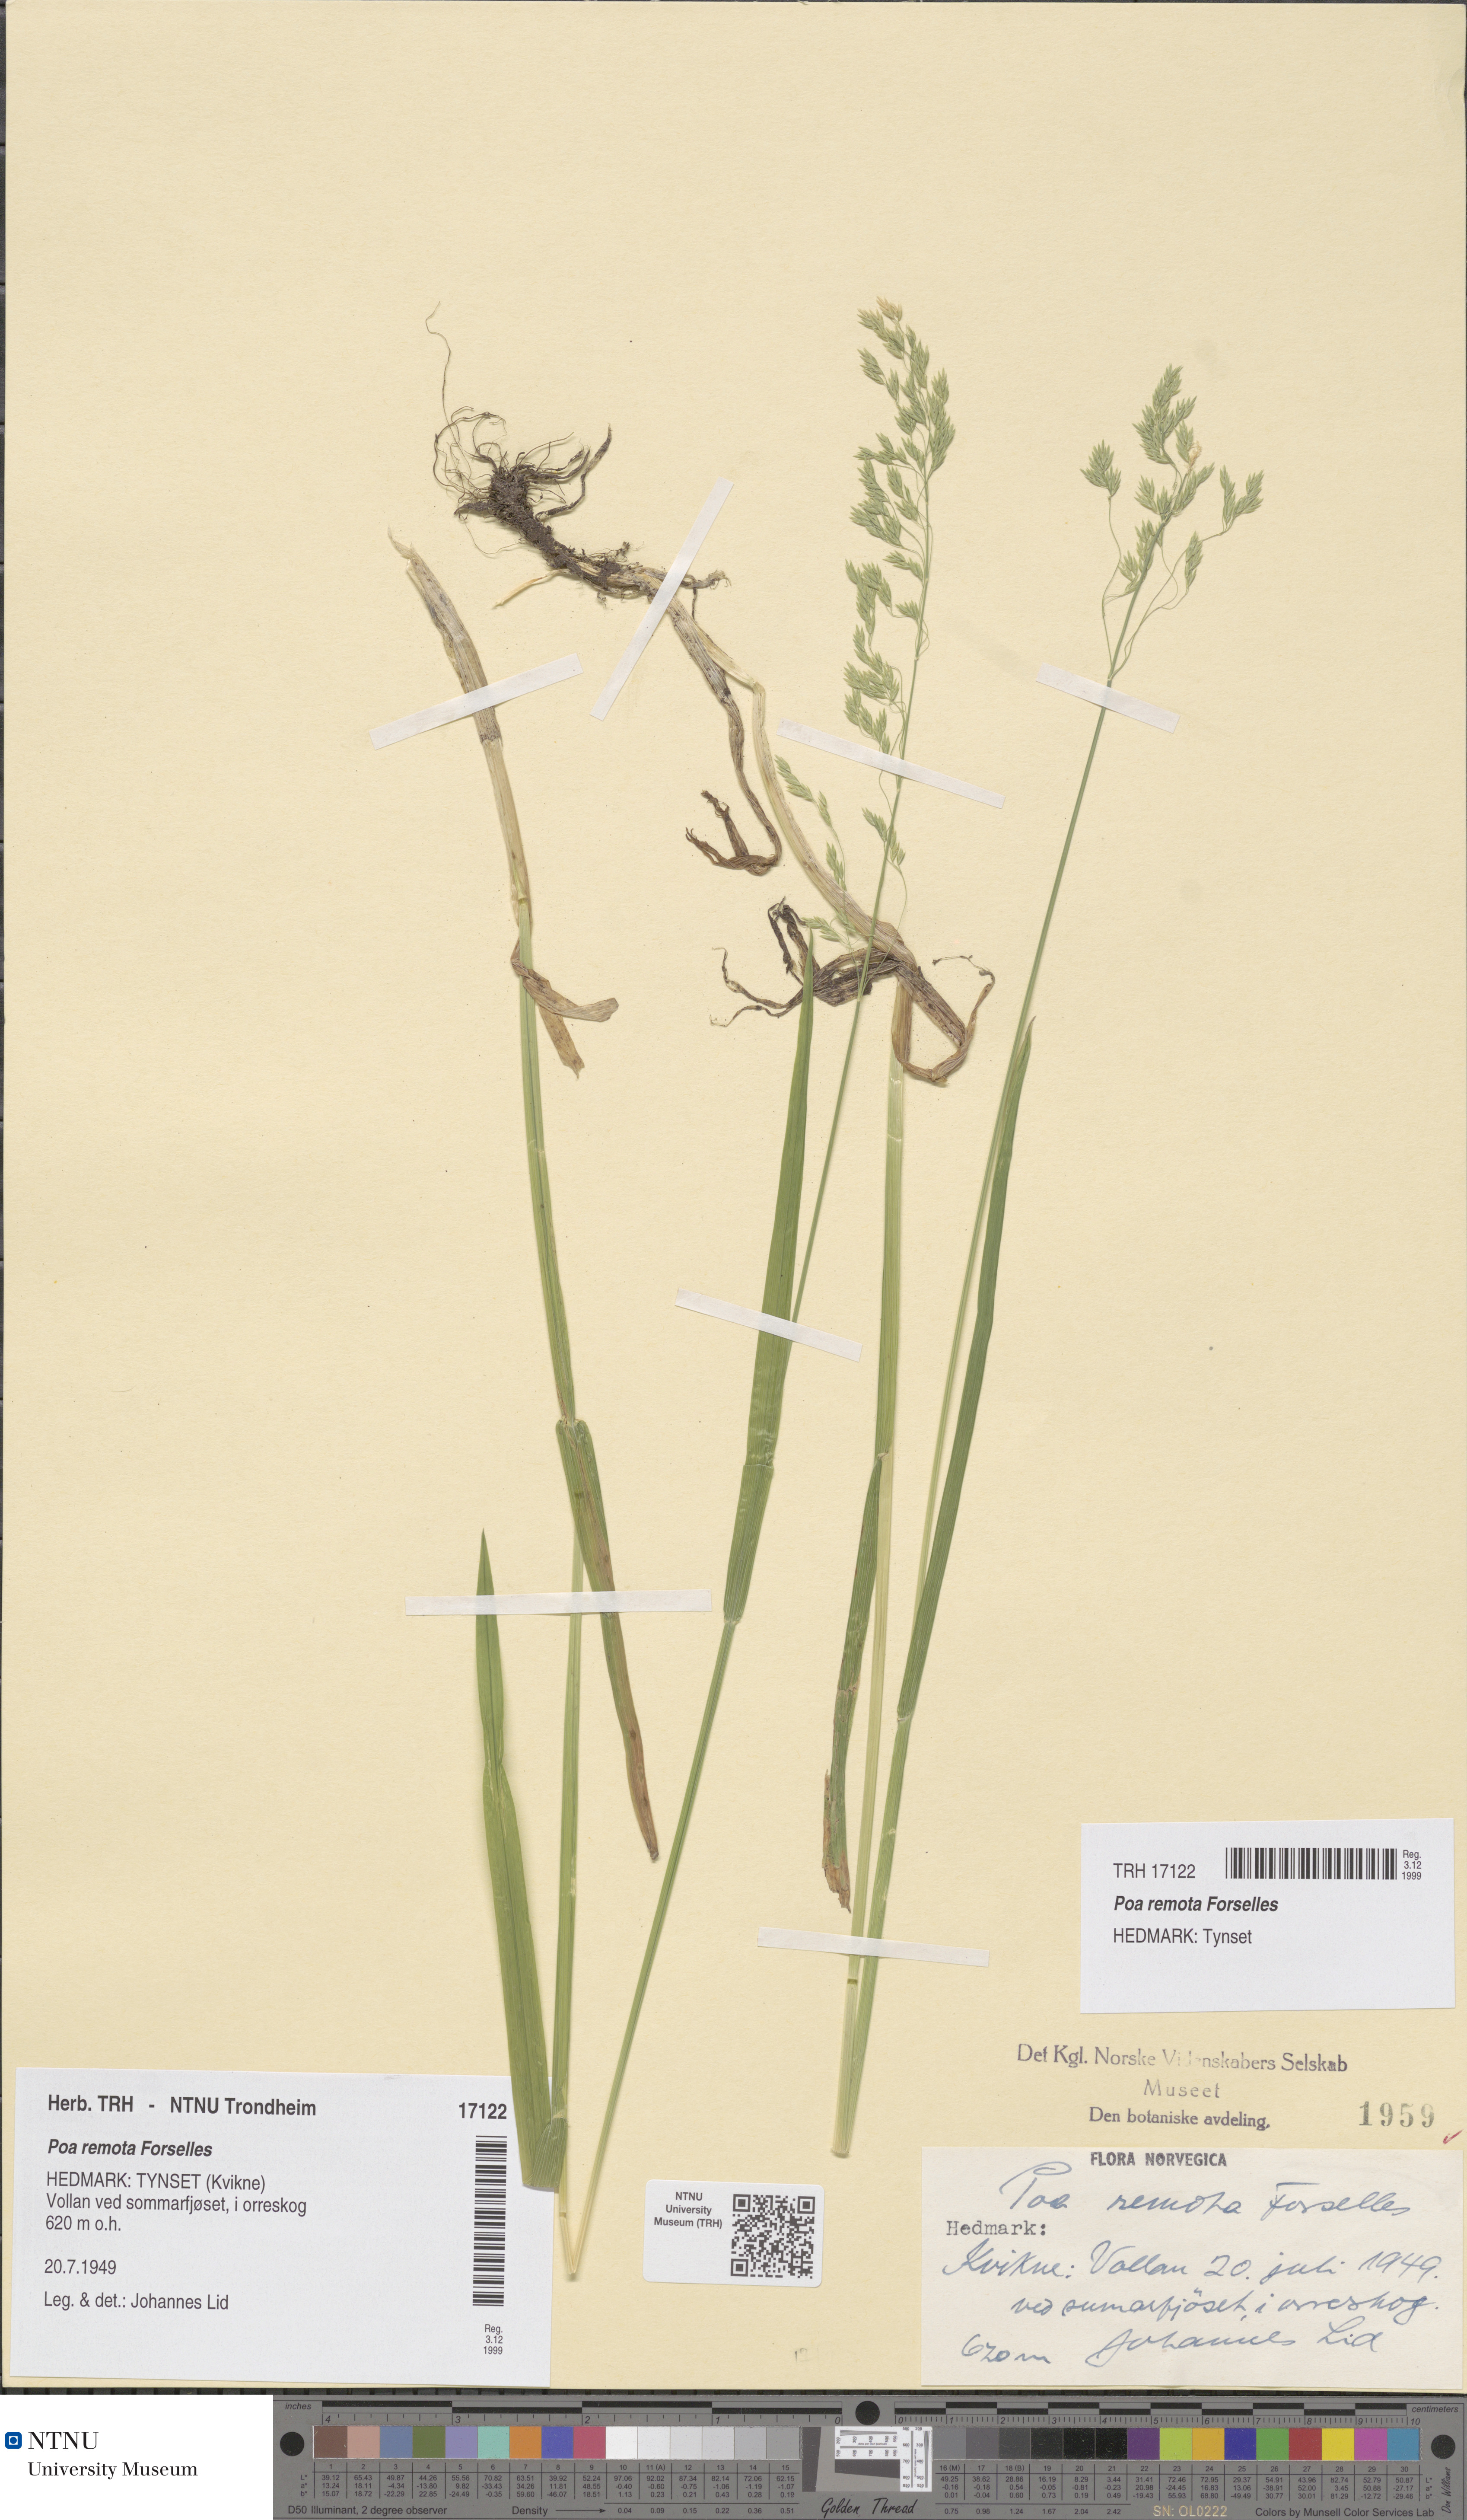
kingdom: Plantae
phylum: Tracheophyta
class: Liliopsida
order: Poales
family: Poaceae
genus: Poa
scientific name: Poa remota
